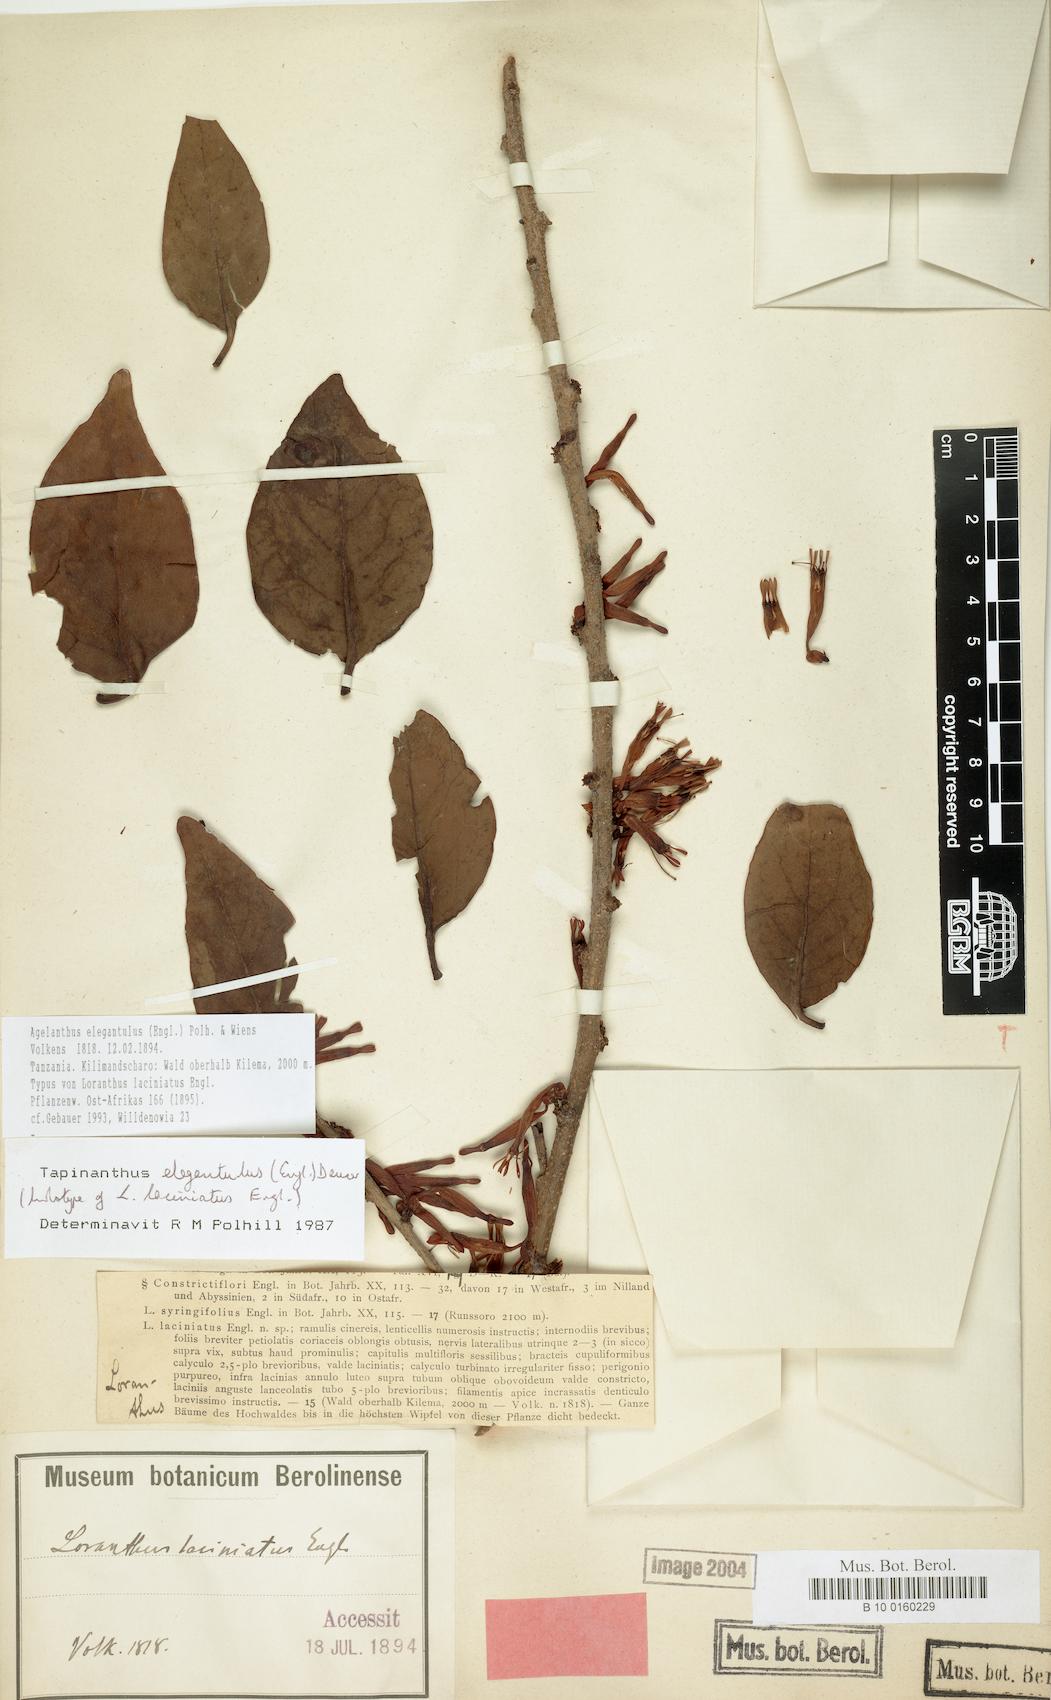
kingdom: Plantae
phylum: Tracheophyta
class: Magnoliopsida
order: Santalales
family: Loranthaceae
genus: Loranthella
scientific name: Loranthella kilimandscharica
